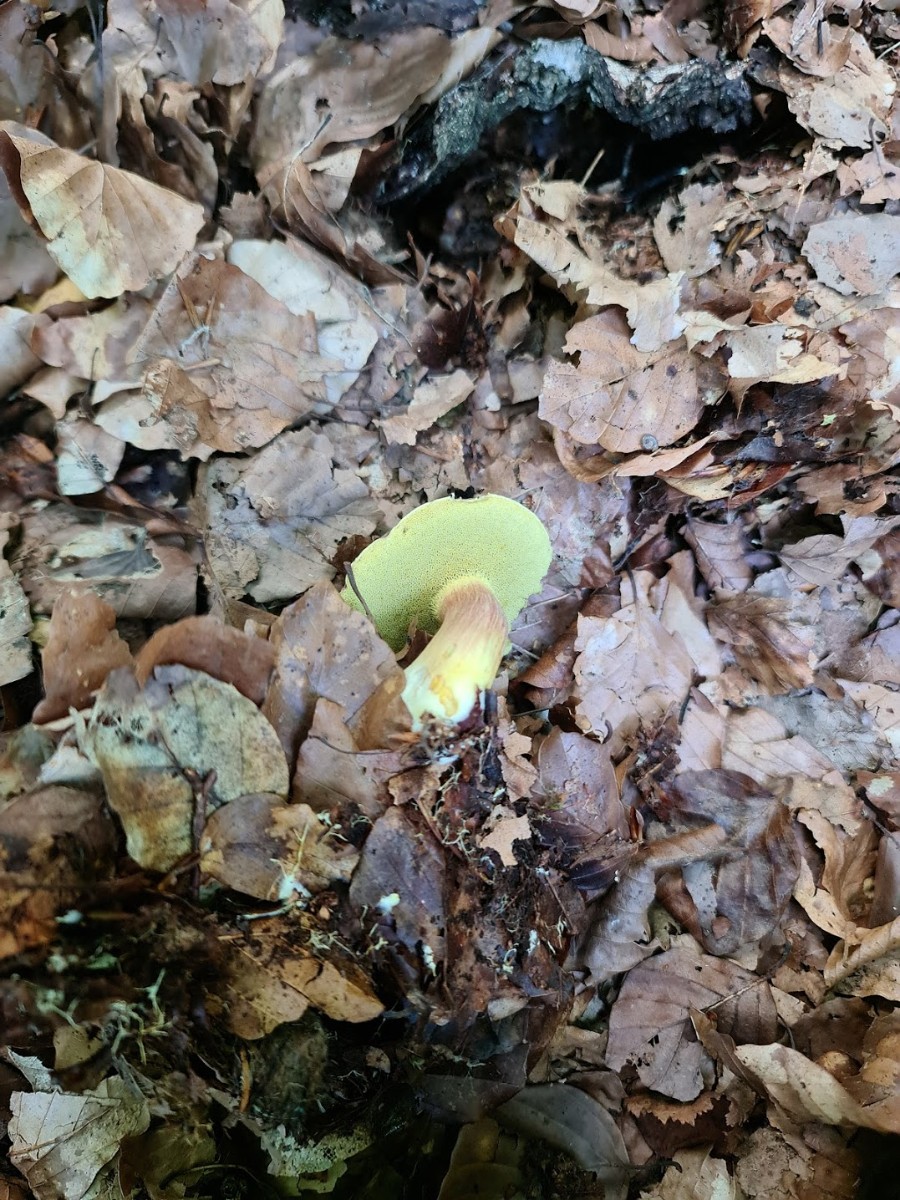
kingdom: Fungi
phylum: Basidiomycota
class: Agaricomycetes
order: Boletales
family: Boletaceae
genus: Xerocomellus
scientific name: Xerocomellus pruinatus
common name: dugget rørhat
